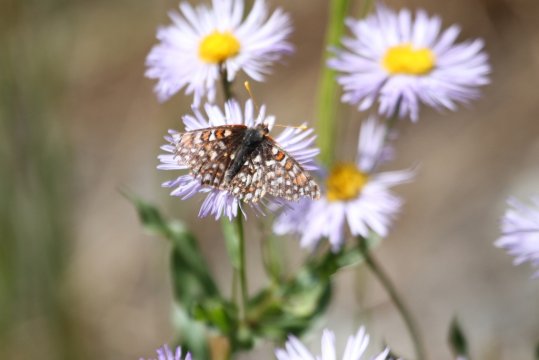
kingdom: Animalia
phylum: Arthropoda
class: Insecta
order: Lepidoptera
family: Nymphalidae
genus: Occidryas
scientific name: Occidryas anicia
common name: Anicia Checkerspot
